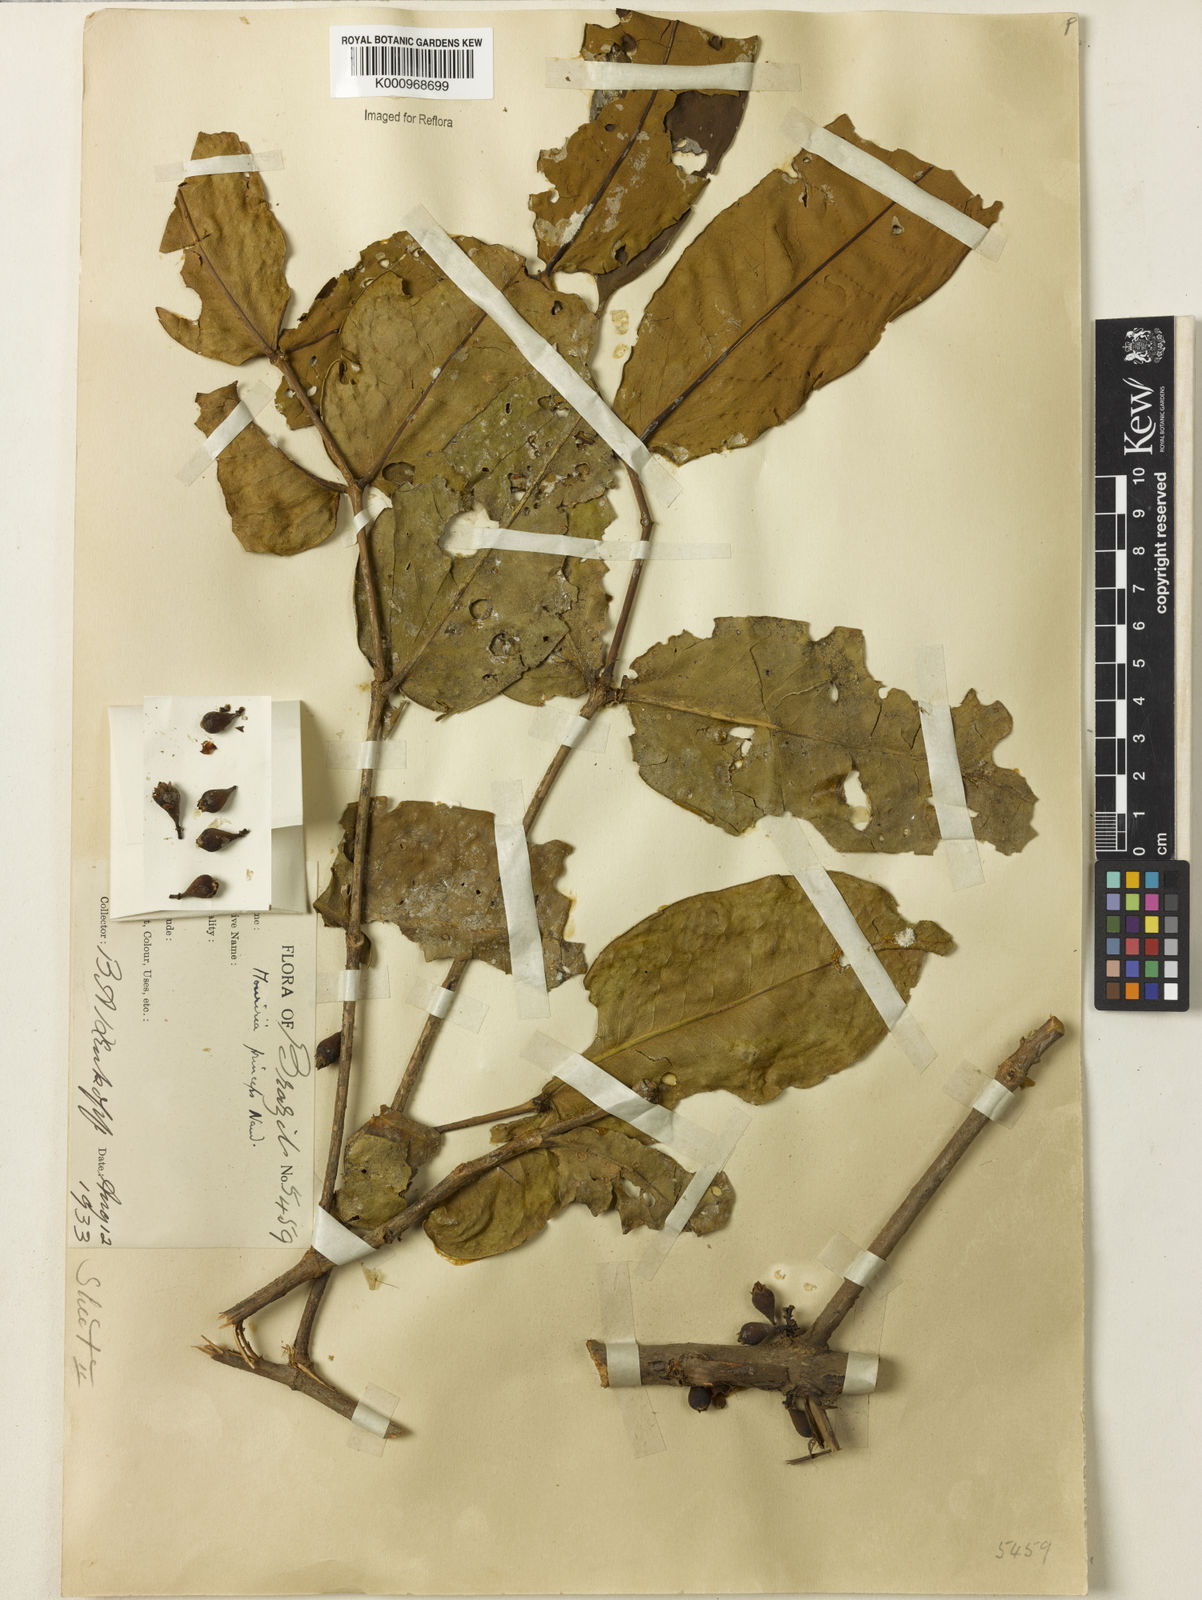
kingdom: Plantae
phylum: Tracheophyta
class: Magnoliopsida
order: Myrtales
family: Melastomataceae
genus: Mouriri
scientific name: Mouriri grandiflora
